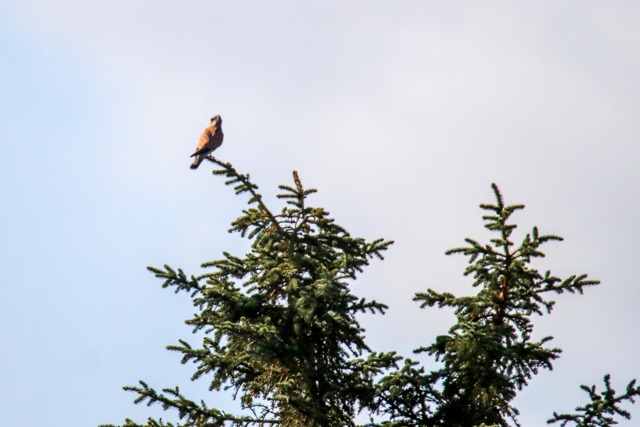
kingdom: Animalia
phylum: Chordata
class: Aves
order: Falconiformes
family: Falconidae
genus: Falco
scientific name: Falco tinnunculus
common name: Tårnfalk
